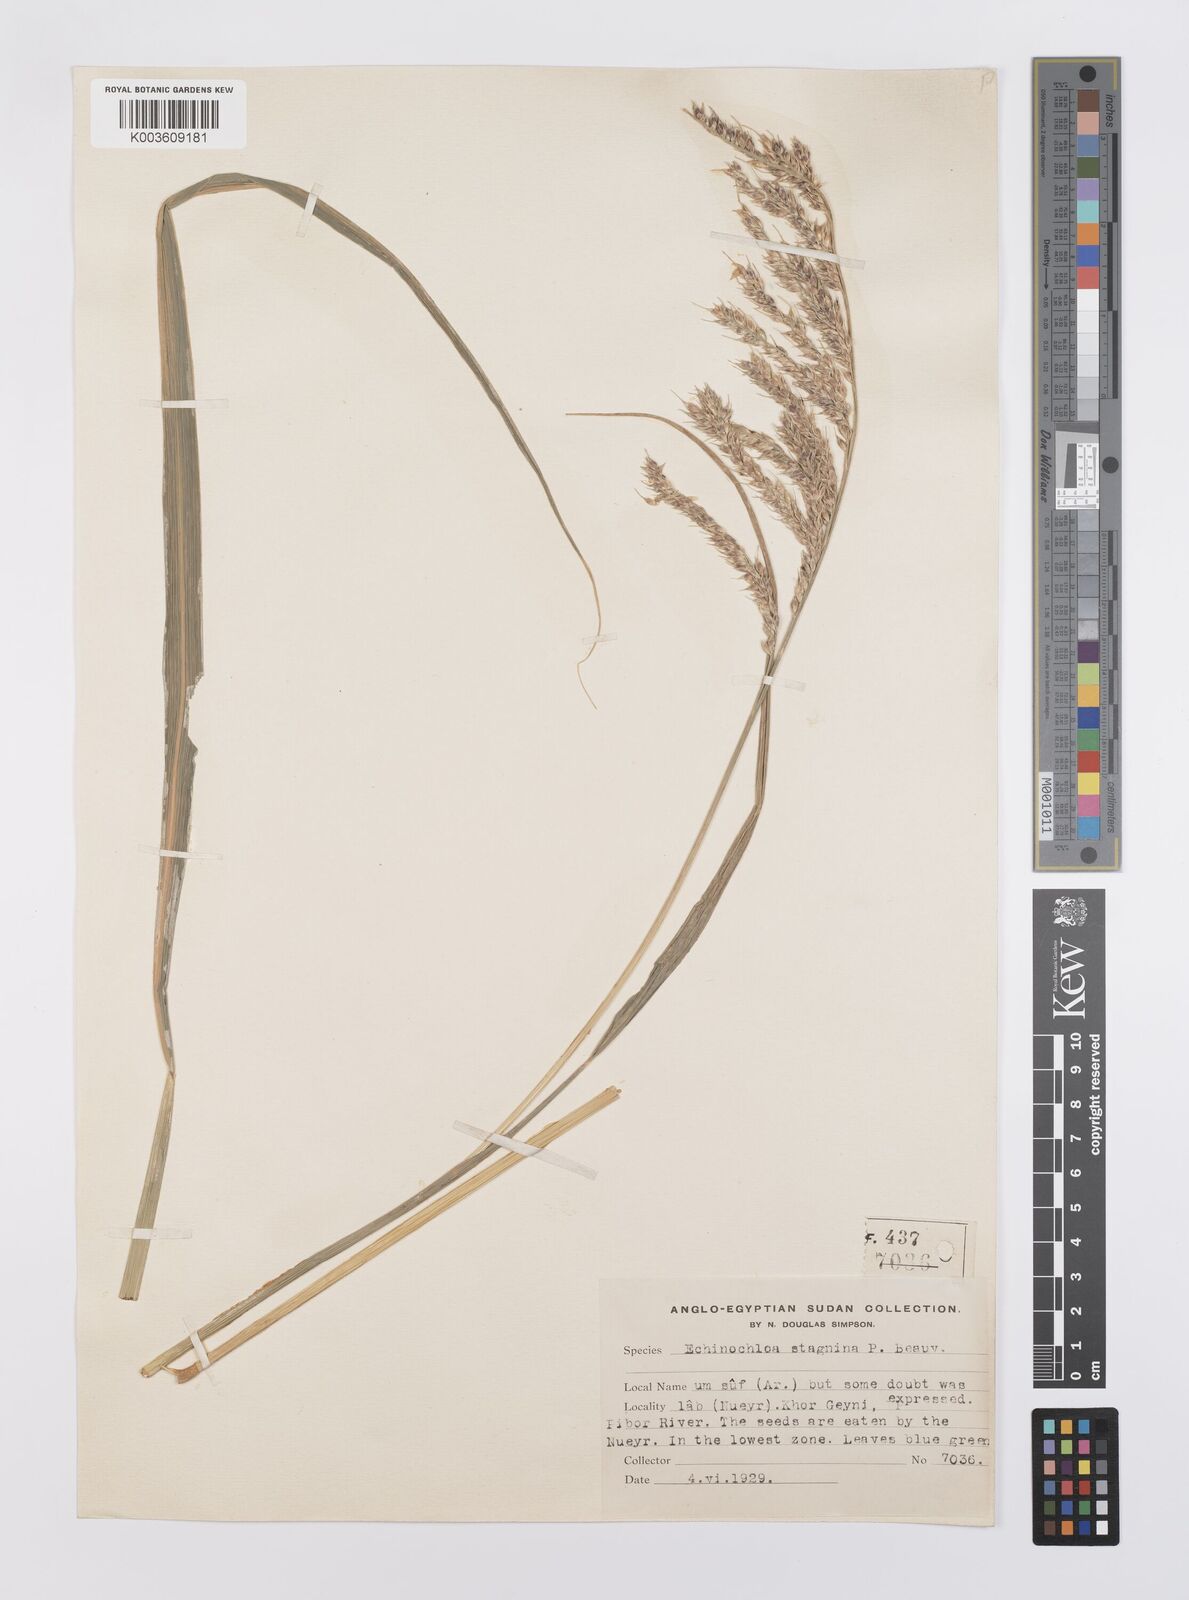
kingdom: Plantae
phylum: Tracheophyta
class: Liliopsida
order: Poales
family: Poaceae
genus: Echinochloa
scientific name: Echinochloa stagnina
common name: Burgu grass
